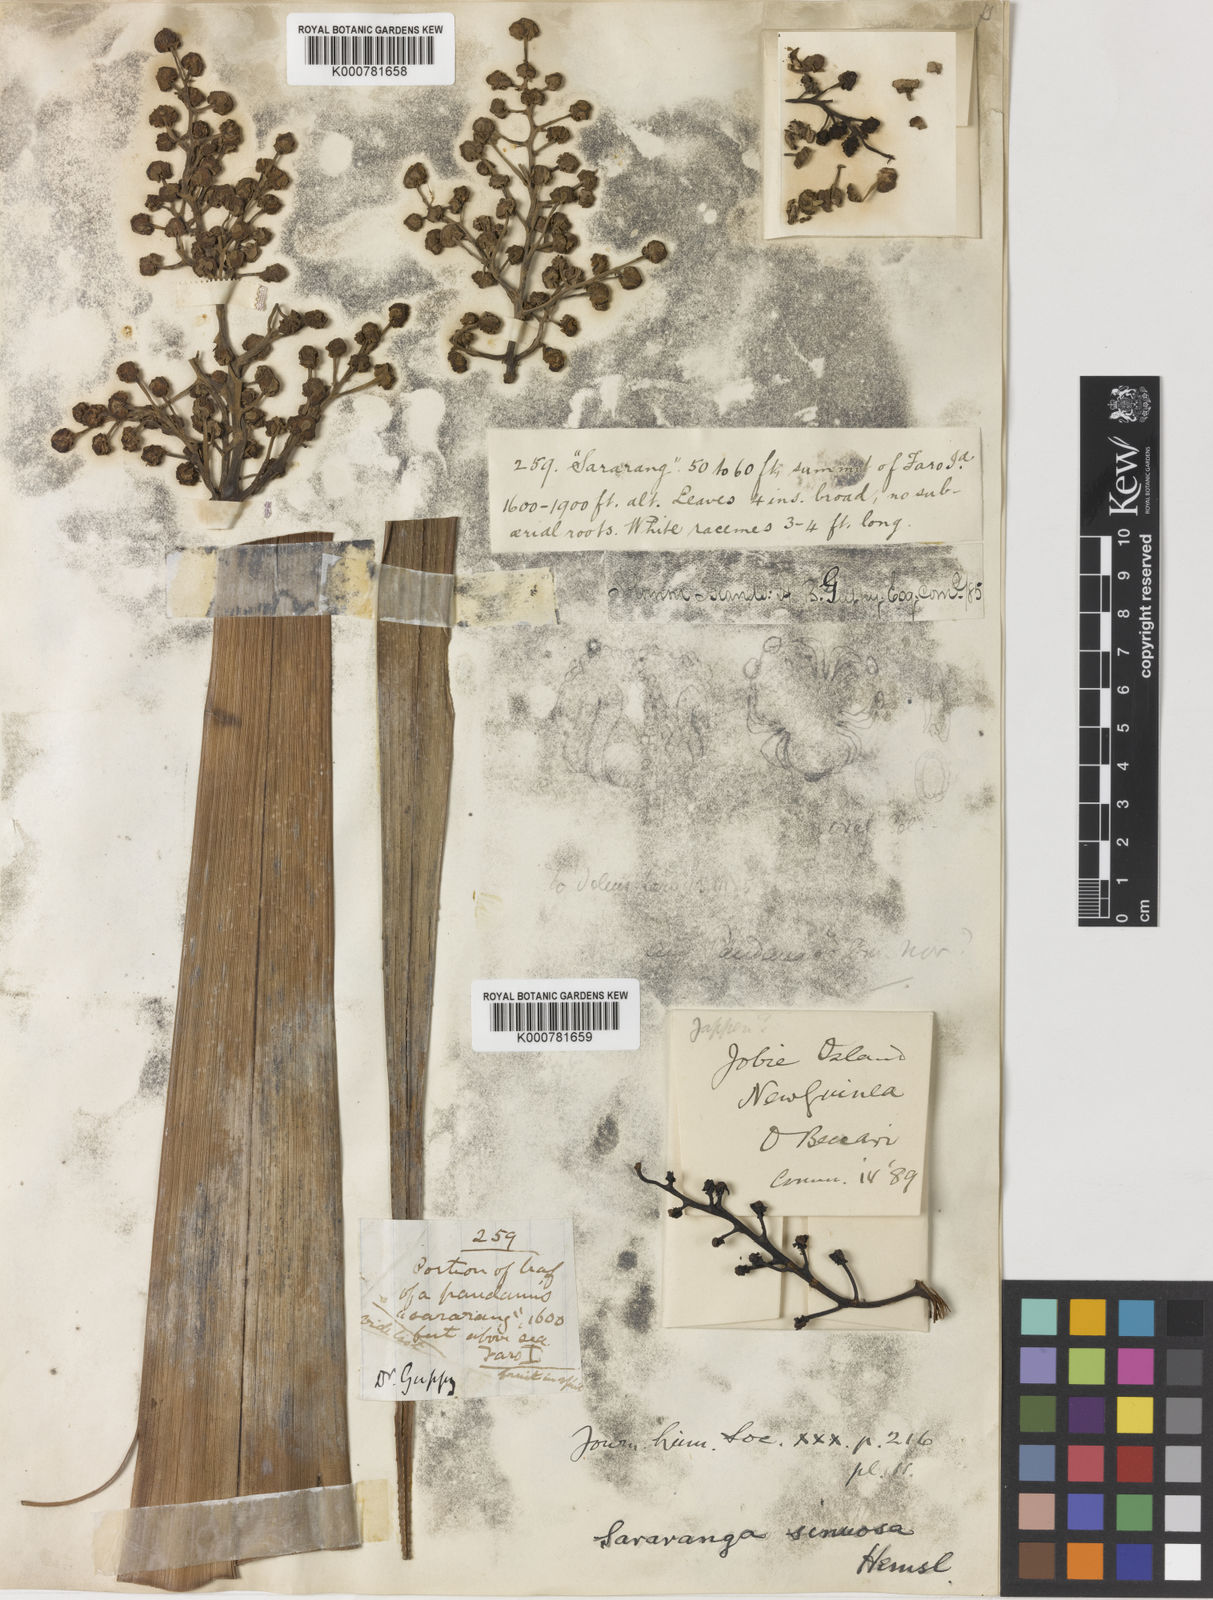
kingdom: Plantae
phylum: Tracheophyta
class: Liliopsida
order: Pandanales
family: Pandanaceae
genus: Sararanga
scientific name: Sararanga sinuosa
